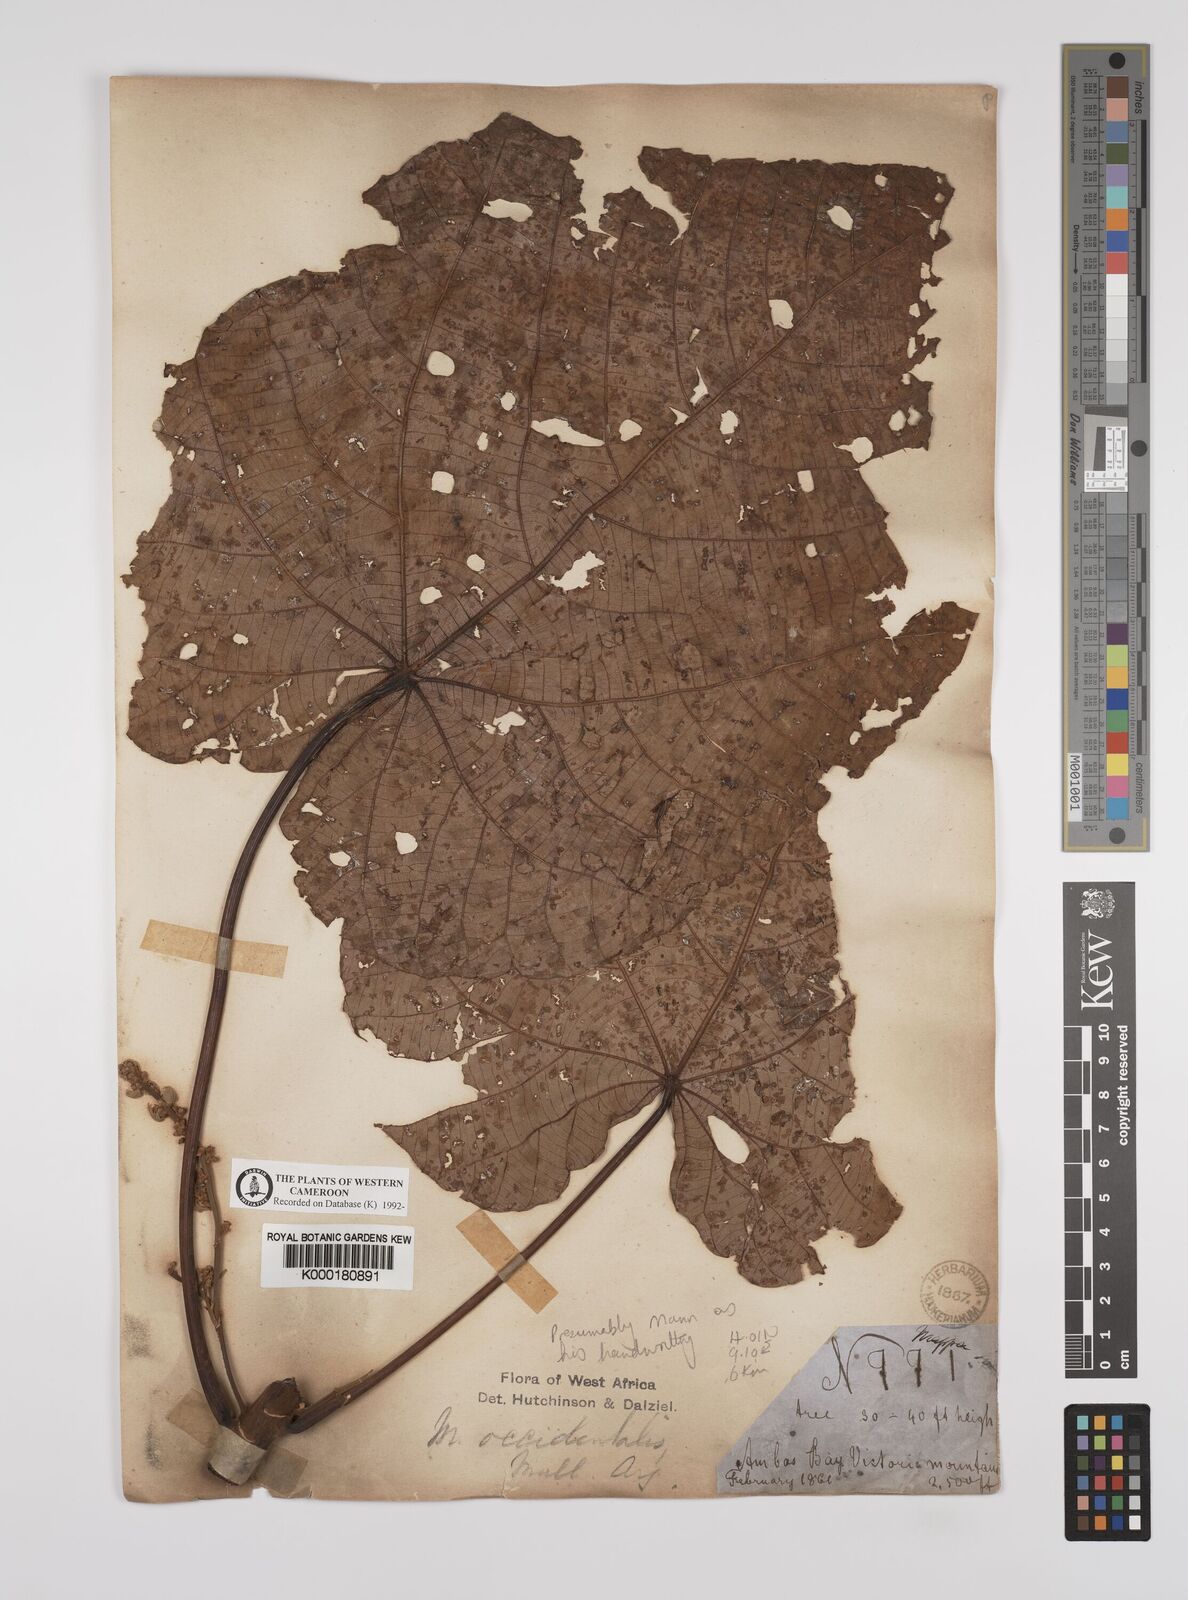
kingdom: Plantae
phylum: Tracheophyta
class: Magnoliopsida
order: Malpighiales
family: Euphorbiaceae
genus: Macaranga
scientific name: Macaranga
